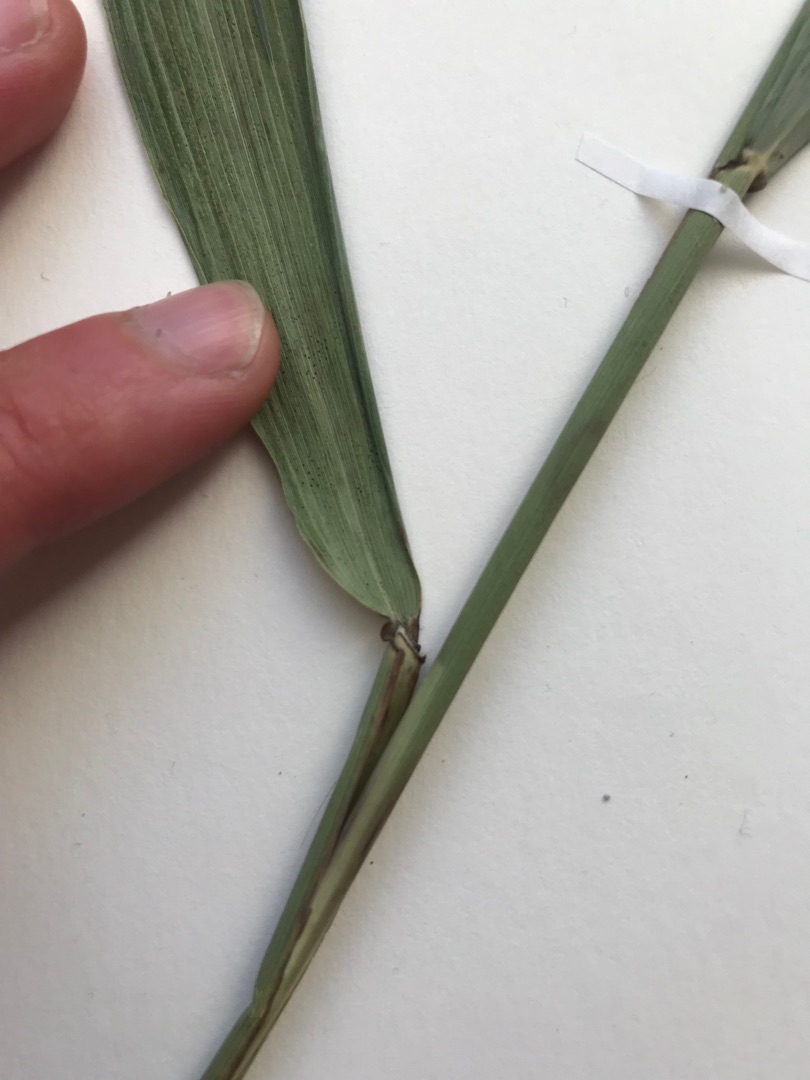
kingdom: Plantae
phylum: Tracheophyta
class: Liliopsida
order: Poales
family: Poaceae
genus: Phragmites
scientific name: Phragmites australis
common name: Tagrør
